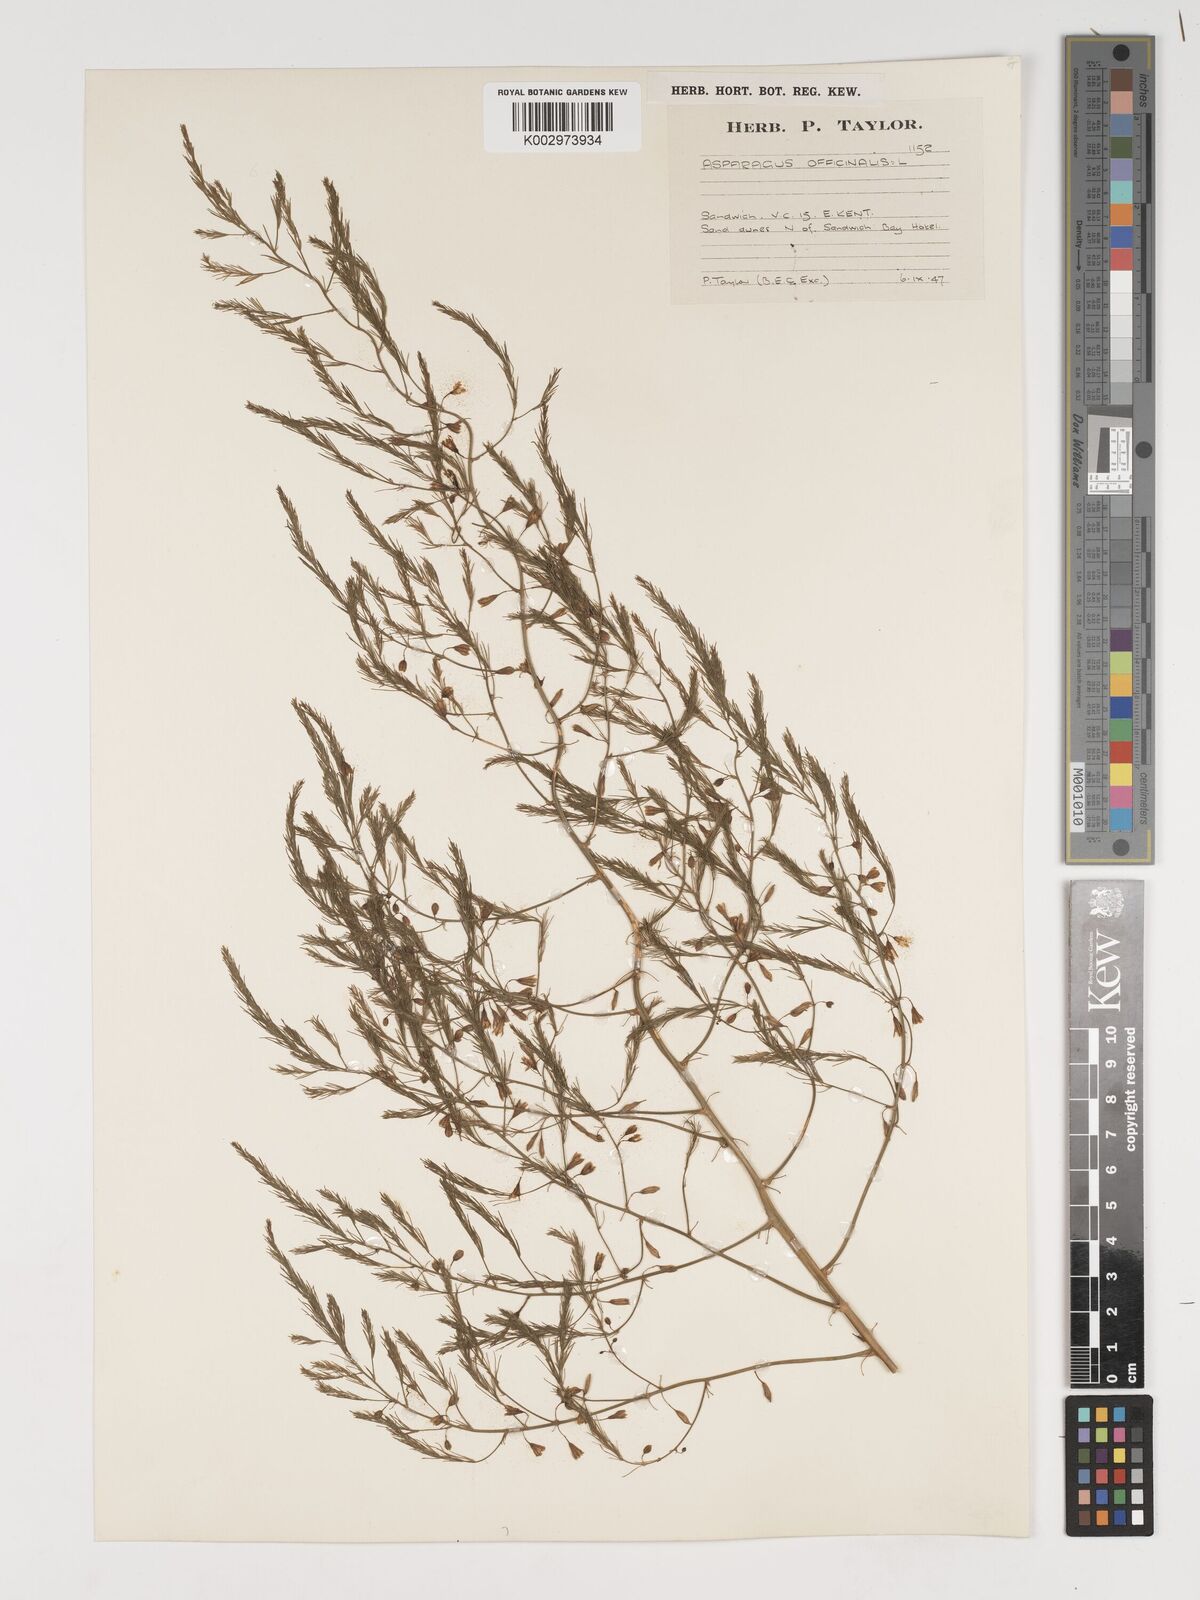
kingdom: Plantae
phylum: Tracheophyta
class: Liliopsida
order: Asparagales
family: Asparagaceae
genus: Asparagus
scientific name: Asparagus officinalis
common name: Garden asparagus
